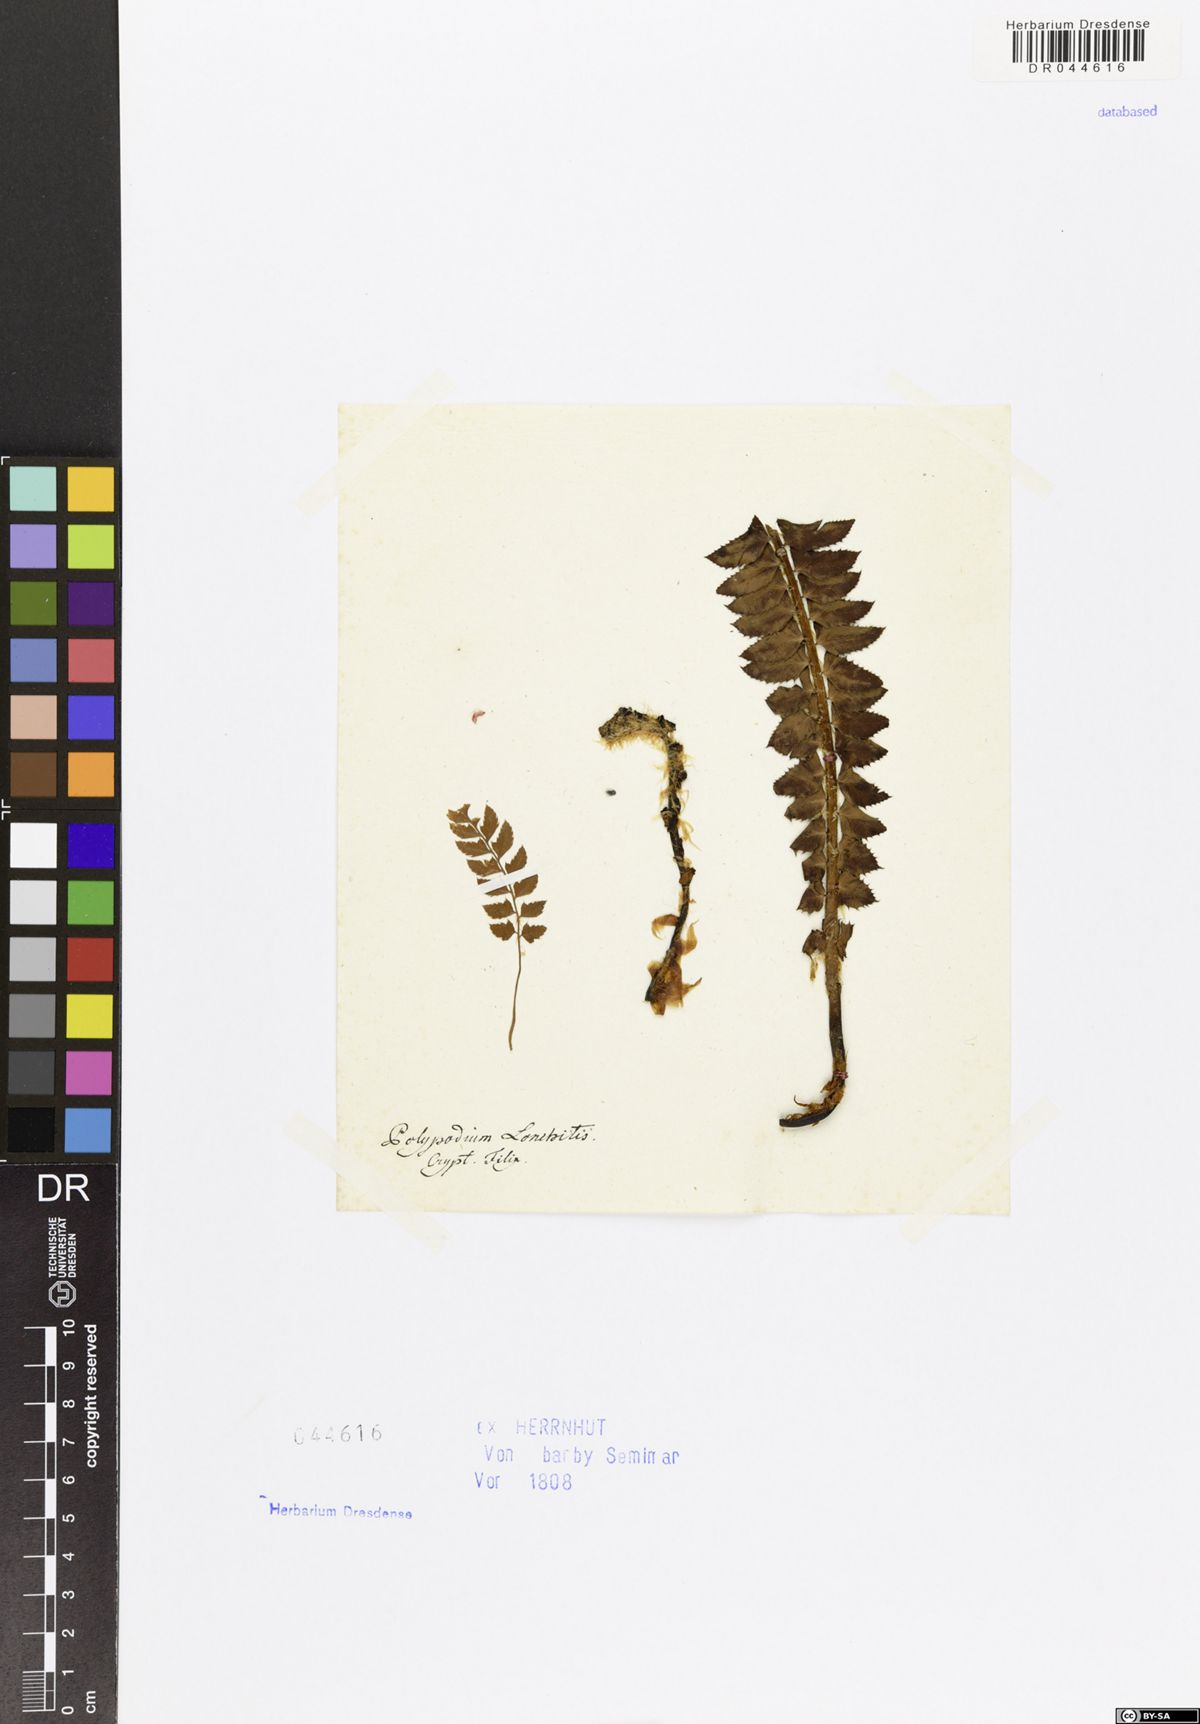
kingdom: Plantae
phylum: Tracheophyta
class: Polypodiopsida
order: Polypodiales
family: Dryopteridaceae
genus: Polystichum
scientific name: Polystichum lonchitis
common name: Holly fern
